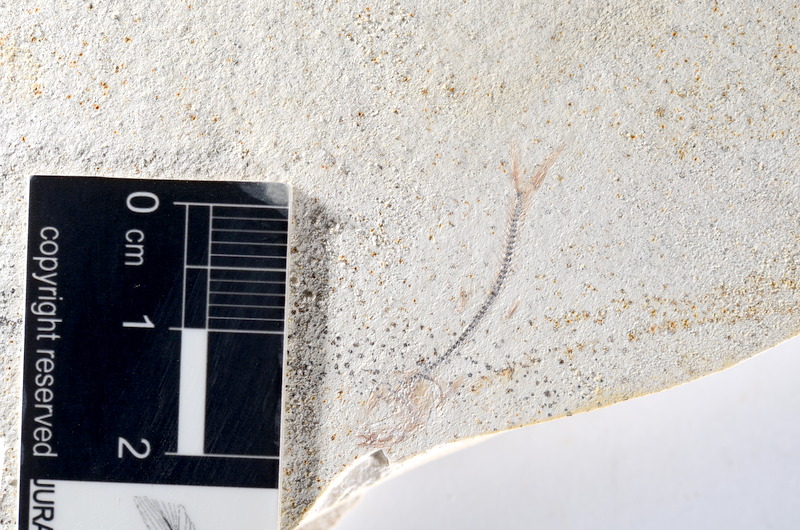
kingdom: Animalia
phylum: Chordata
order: Salmoniformes
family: Orthogonikleithridae
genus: Orthogonikleithrus
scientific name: Orthogonikleithrus hoelli
